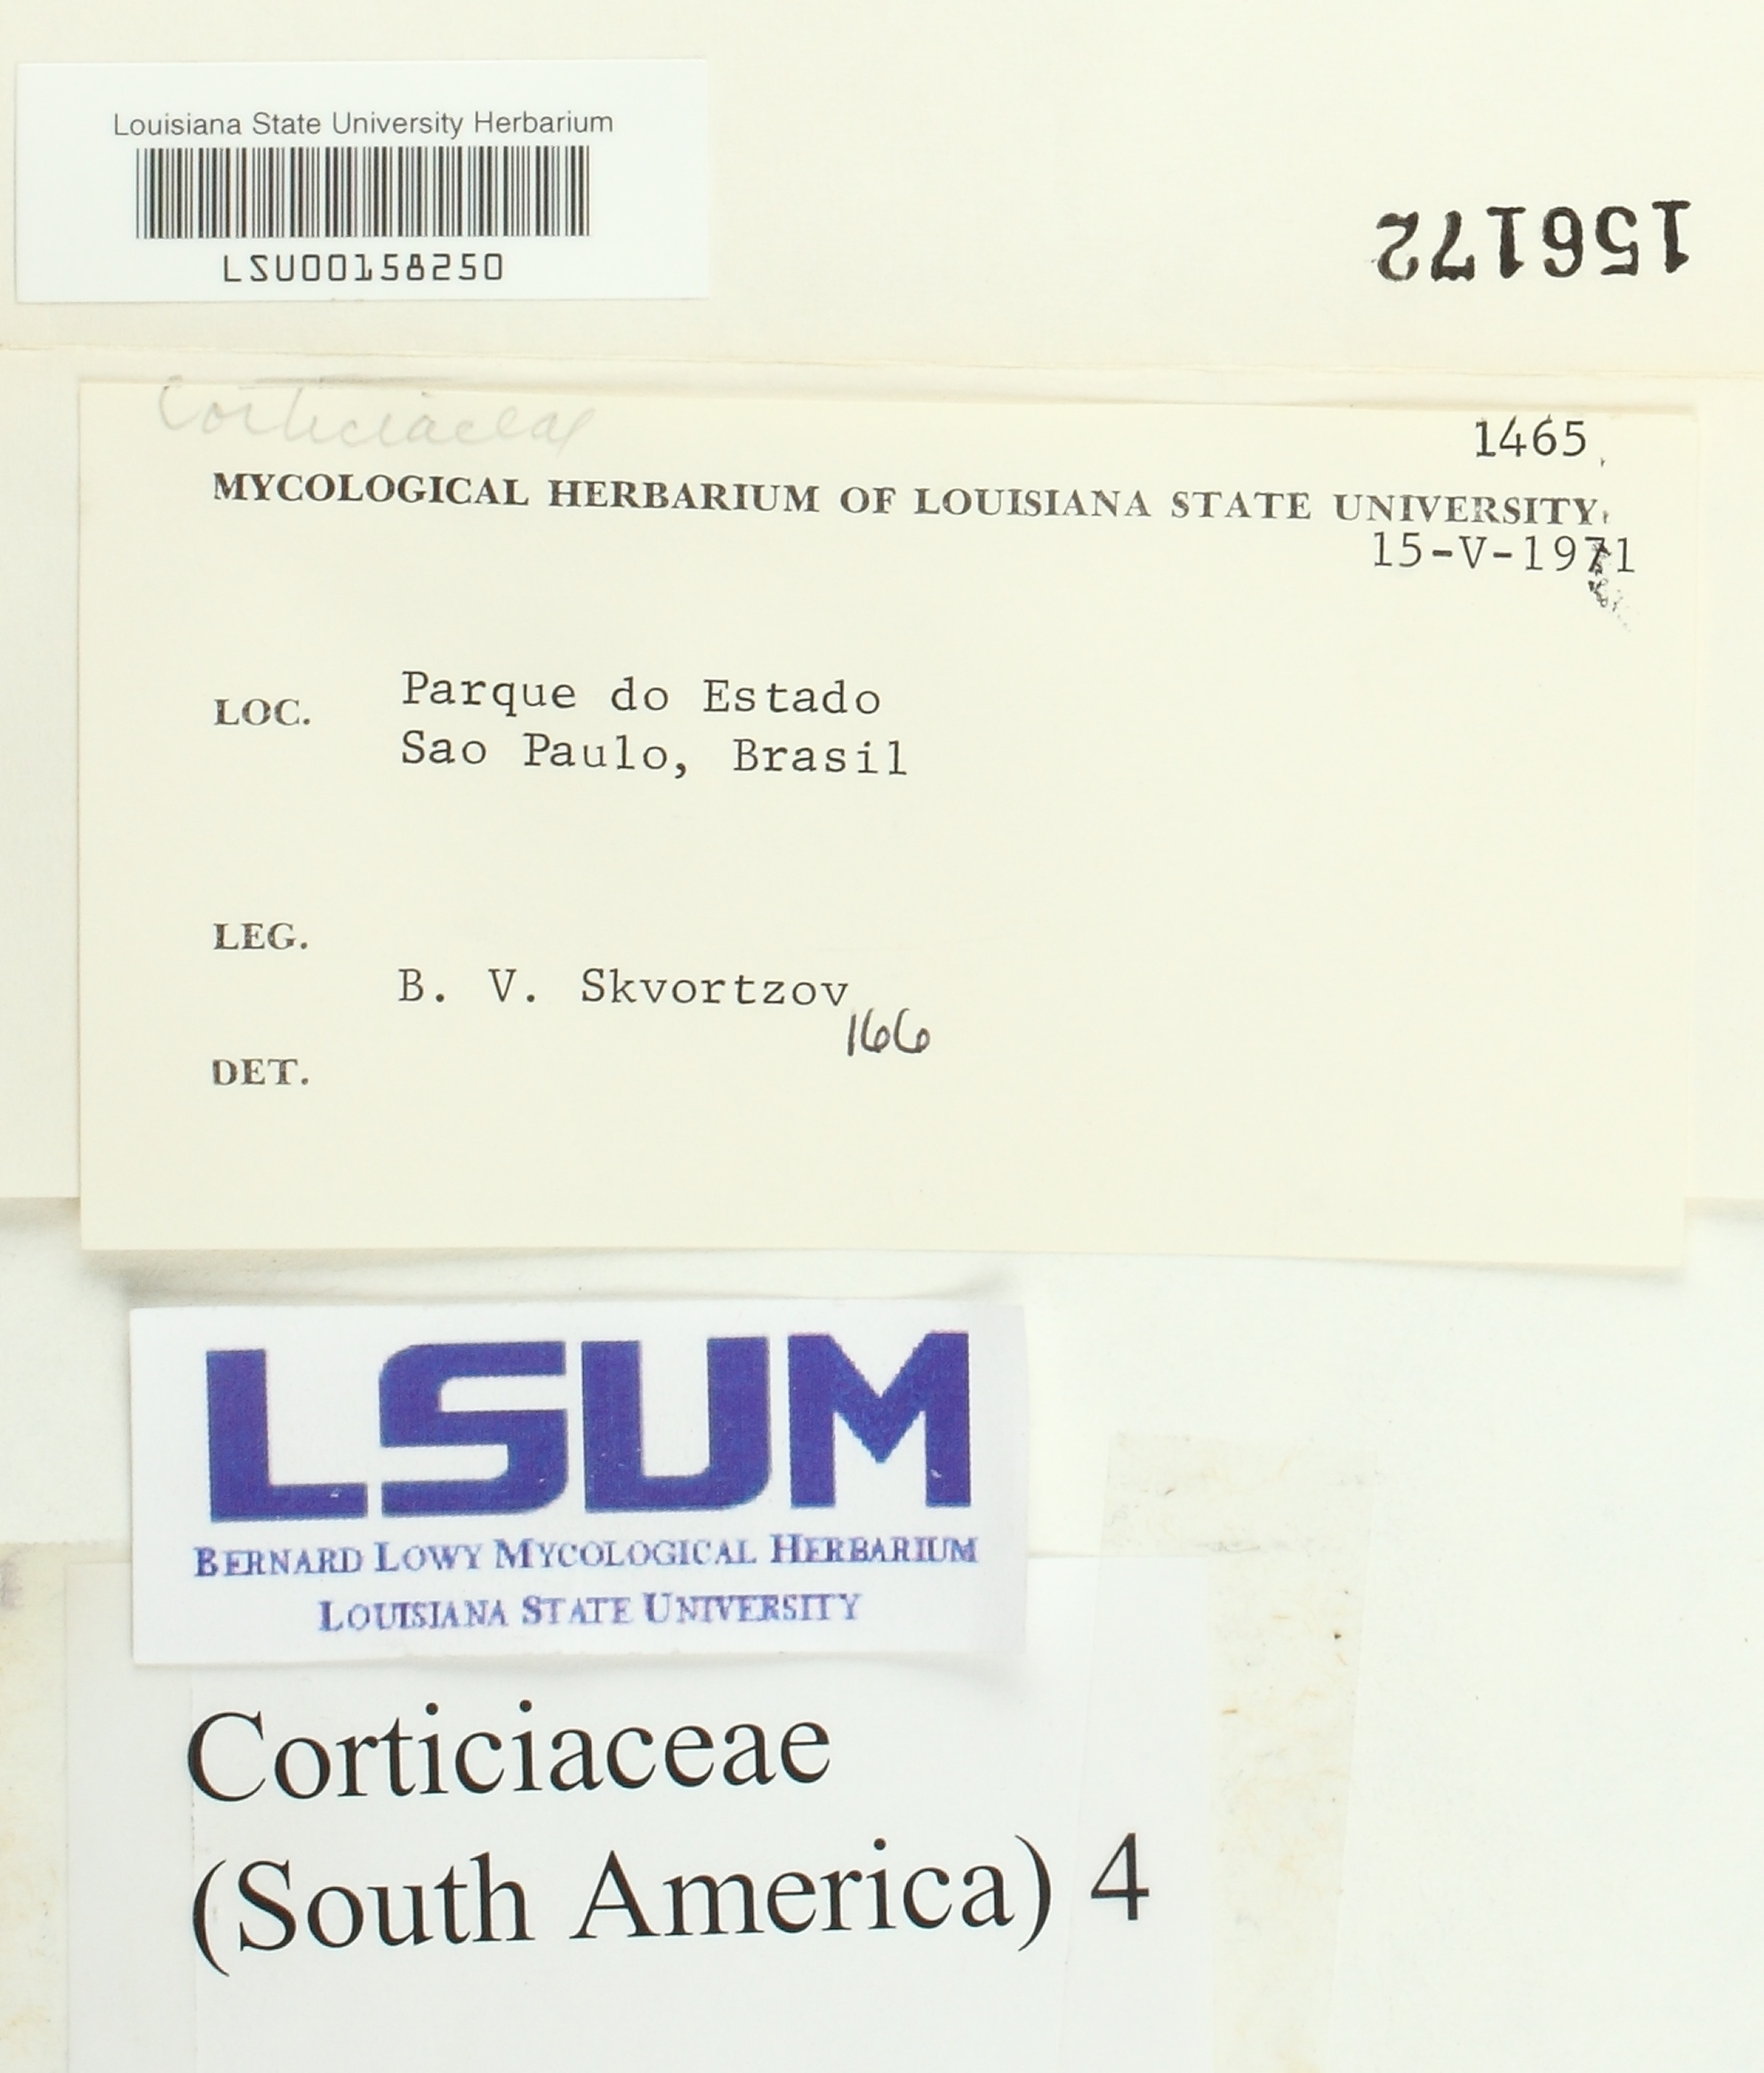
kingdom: Fungi
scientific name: Fungi
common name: Fungi
